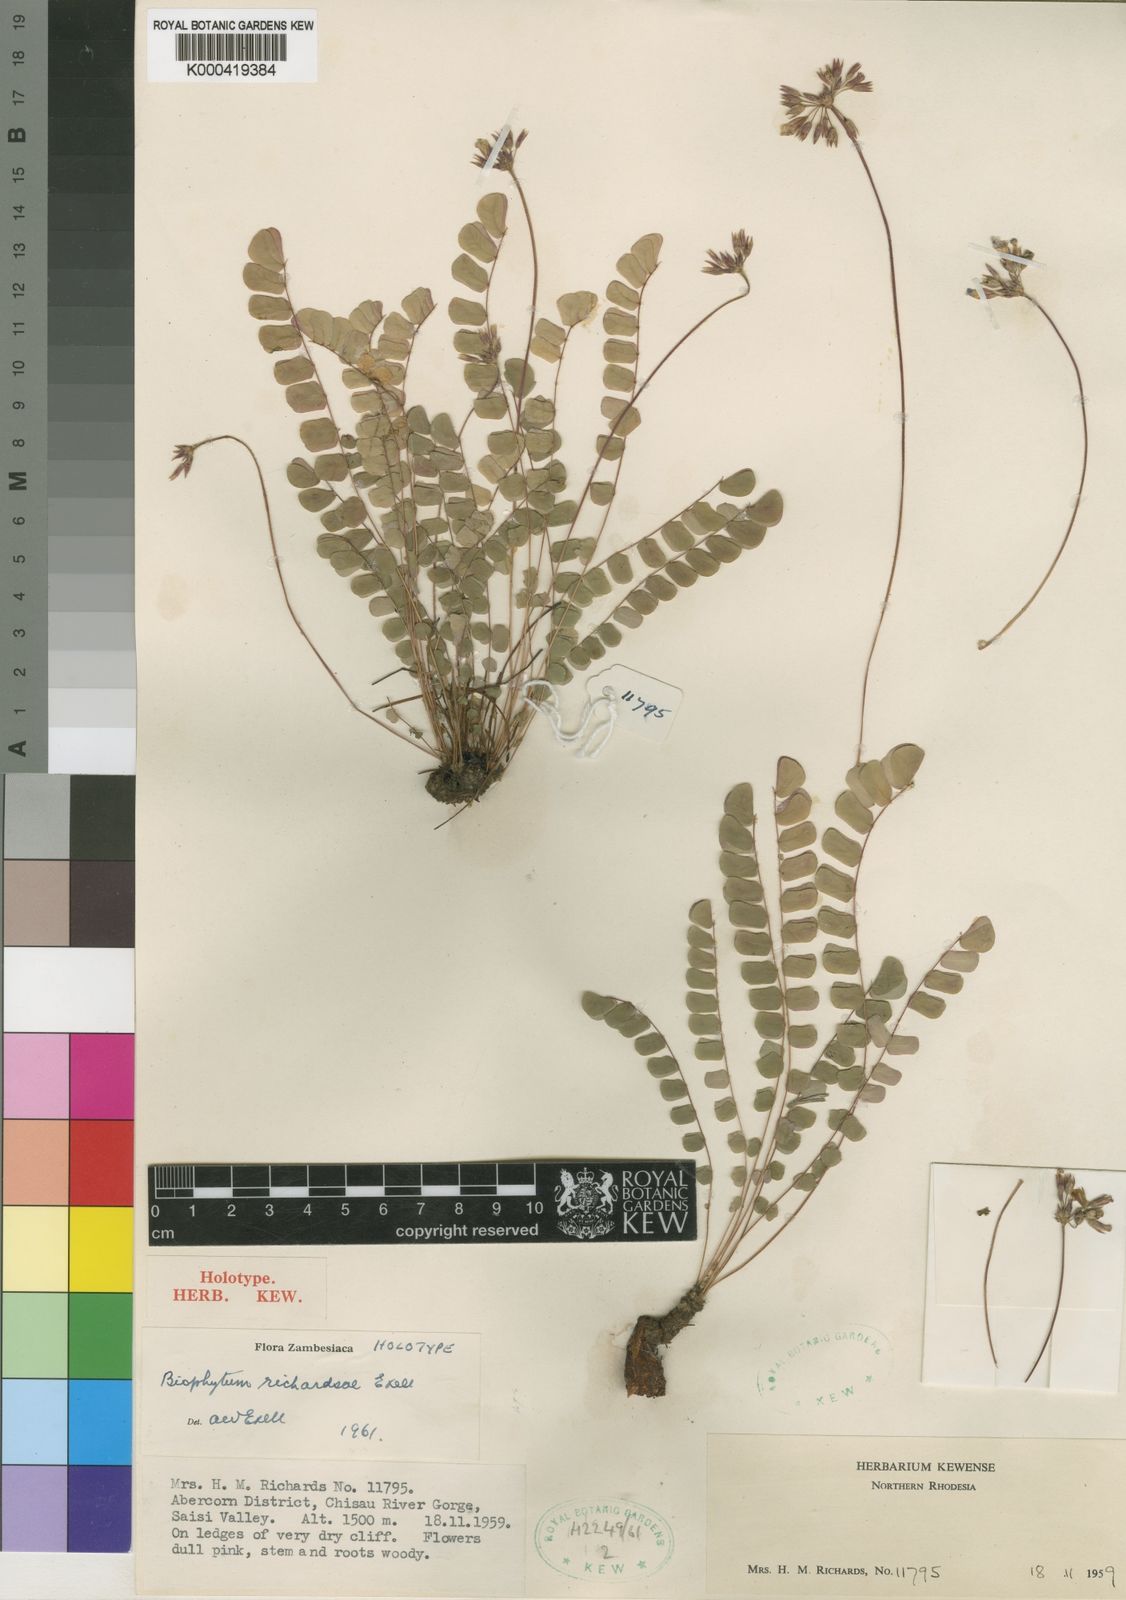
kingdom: Plantae
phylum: Tracheophyta
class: Magnoliopsida
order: Oxalidales
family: Oxalidaceae
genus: Biophytum
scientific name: Biophytum richardsiae
